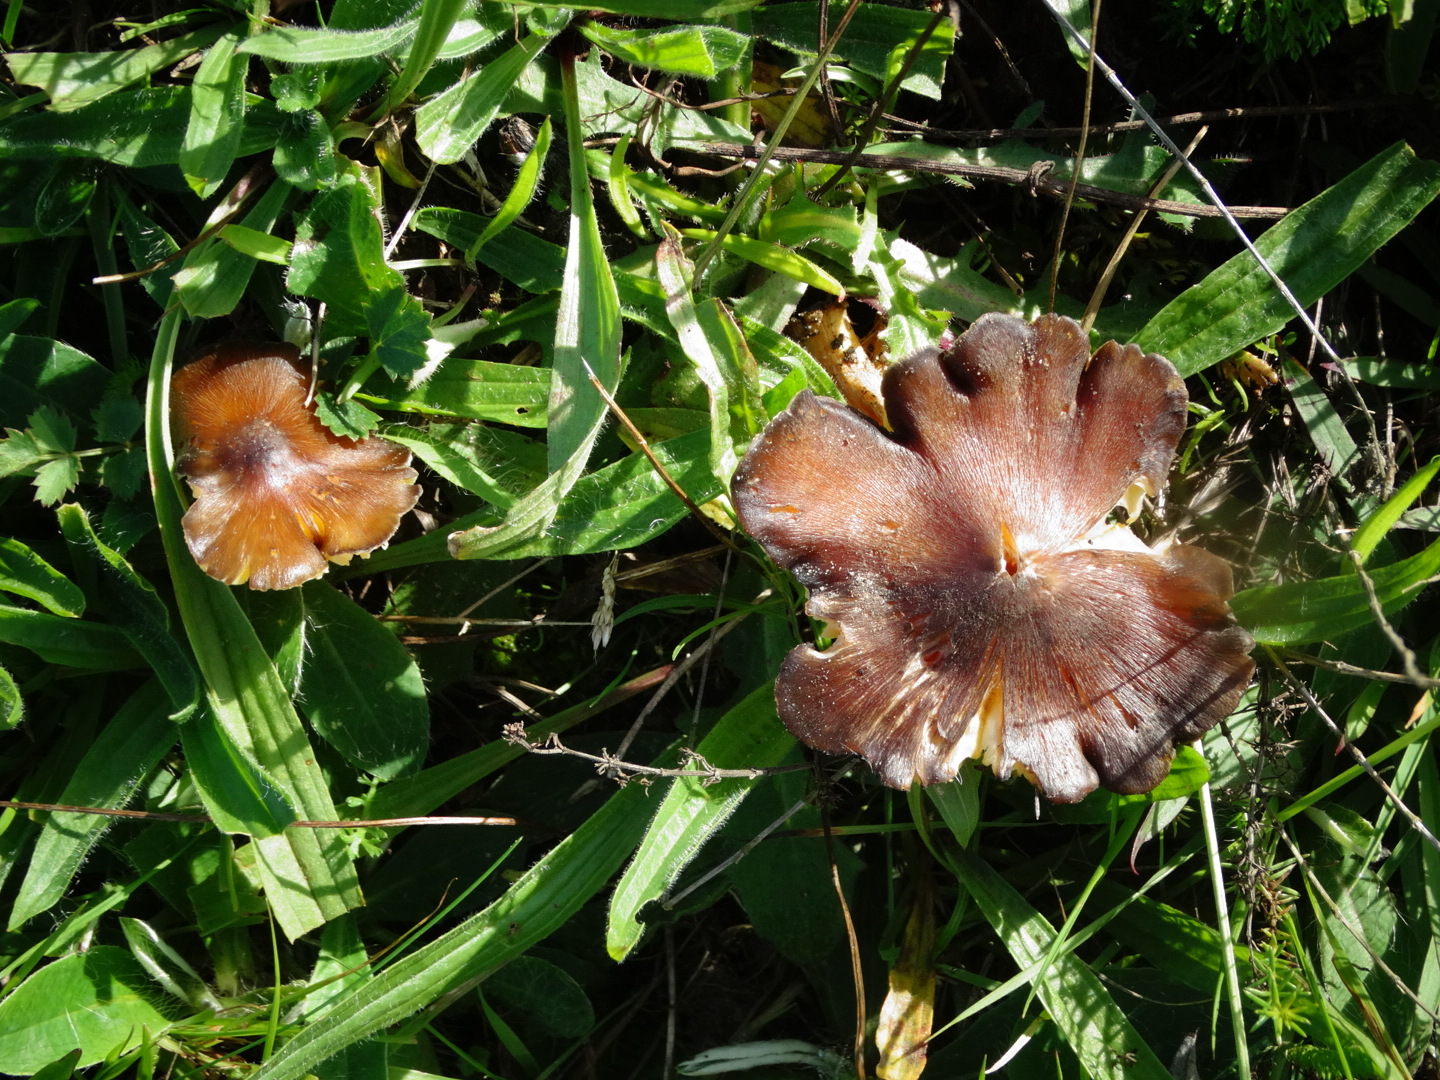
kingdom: Fungi
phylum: Basidiomycota
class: Agaricomycetes
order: Agaricales
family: Hygrophoraceae
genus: Hygrocybe
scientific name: Hygrocybe spadicea
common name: daddelbrun vokshat
